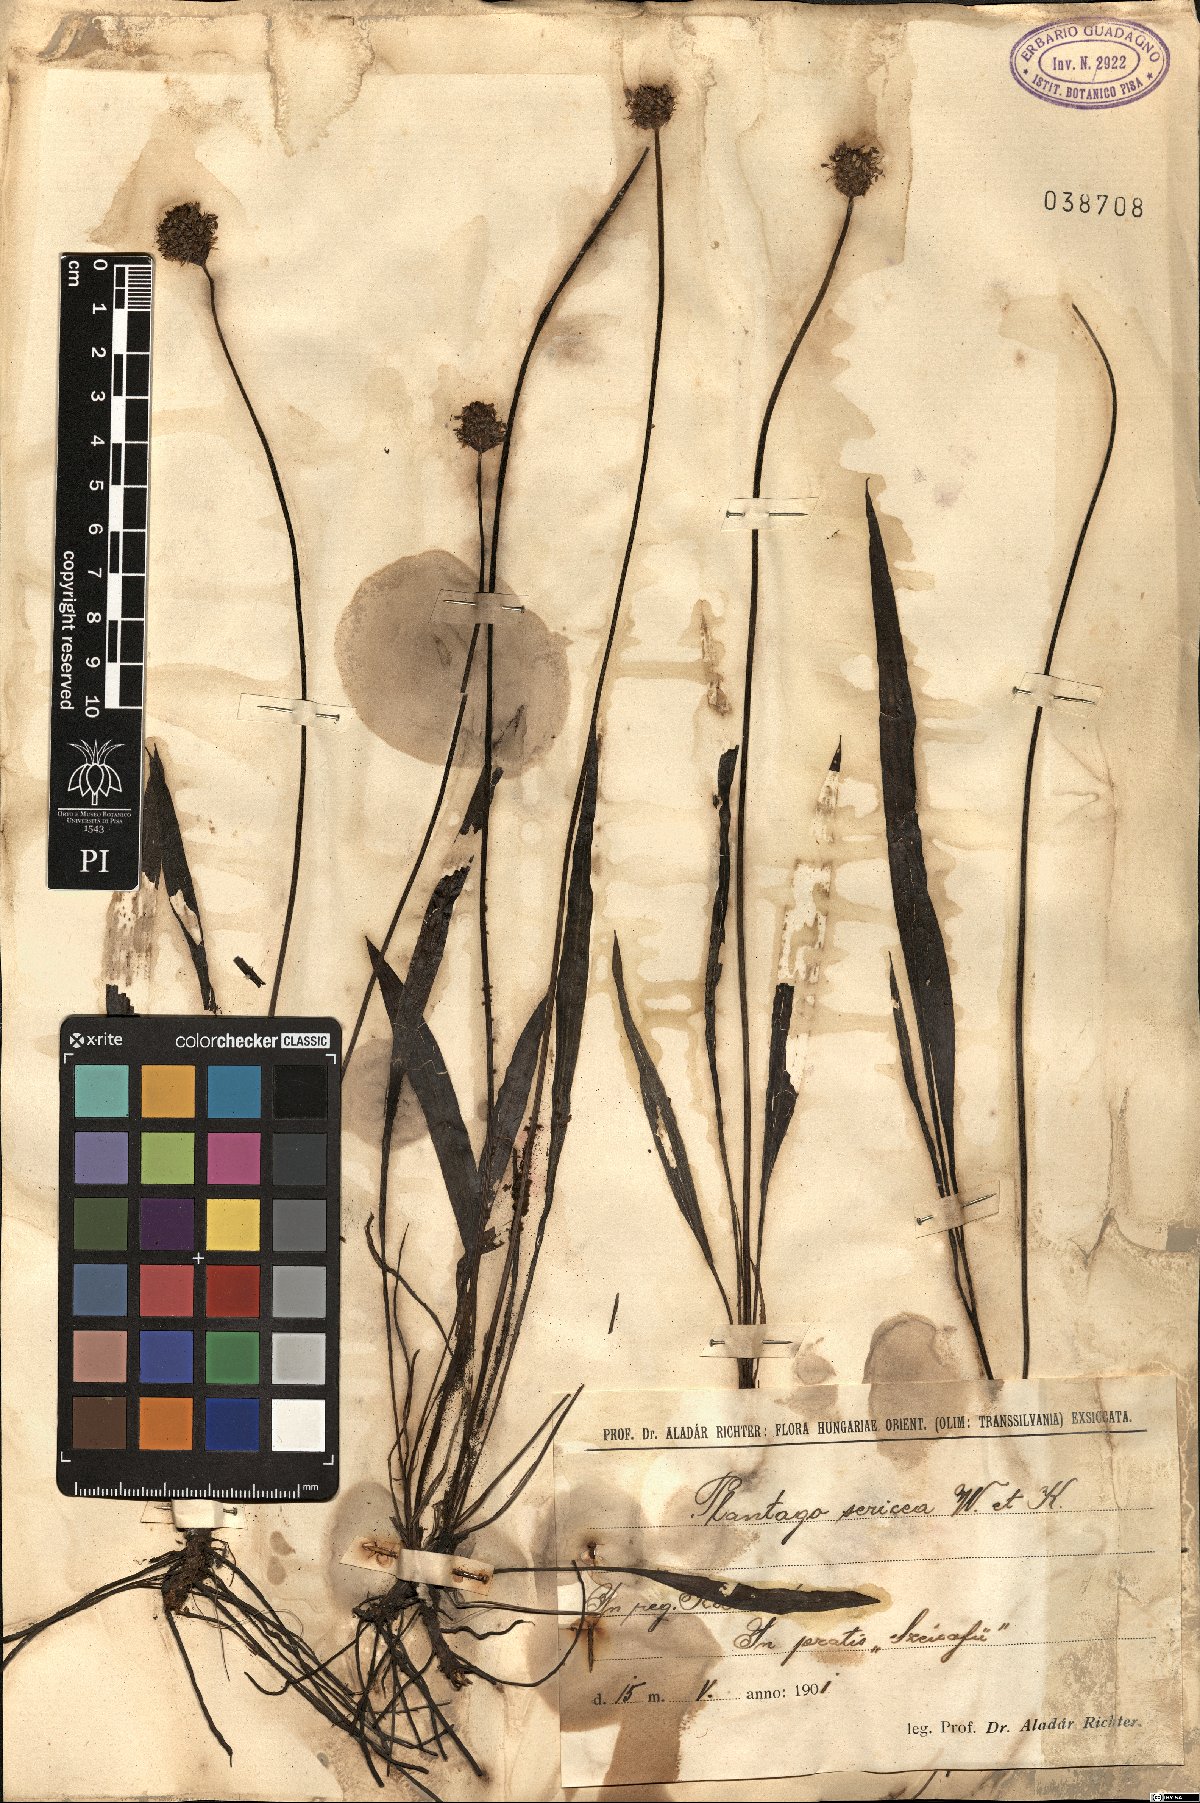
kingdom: Plantae
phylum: Tracheophyta
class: Magnoliopsida
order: Lamiales
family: Plantaginaceae
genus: Plantago
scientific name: Plantago argentea
